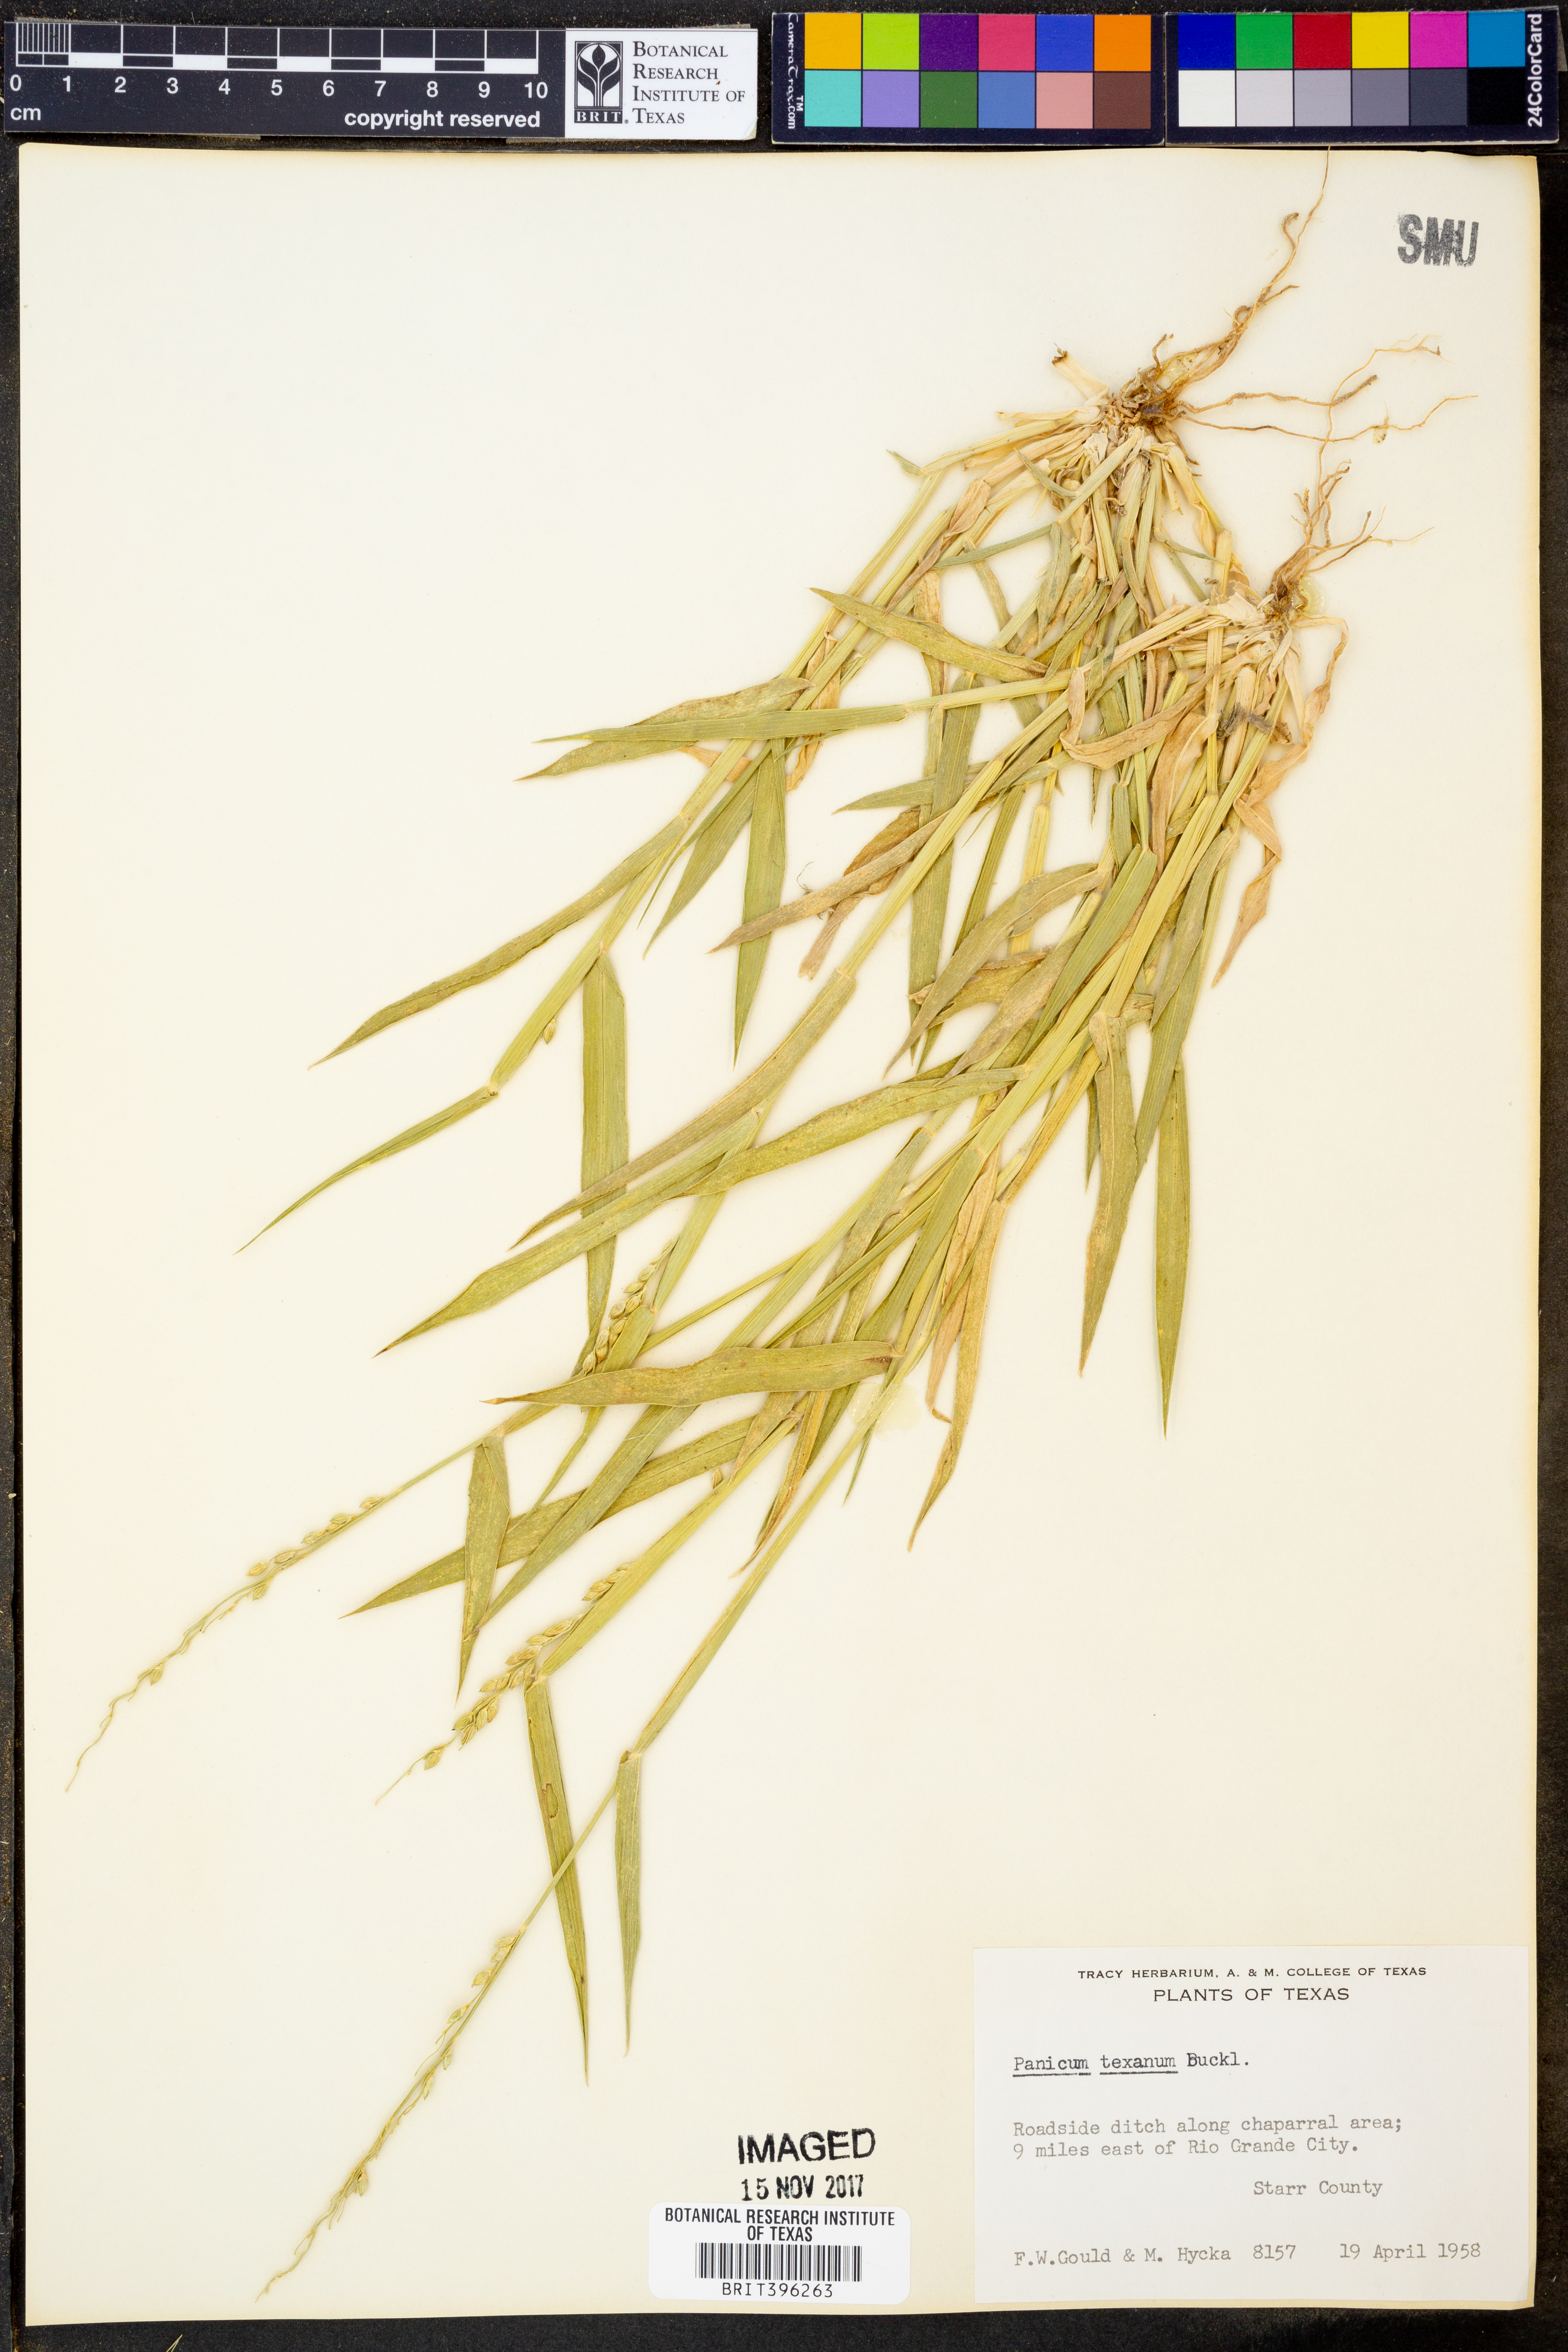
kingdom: Plantae
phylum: Tracheophyta
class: Liliopsida
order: Poales
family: Poaceae
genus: Urochloa
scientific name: Urochloa texana
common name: Texas millet
